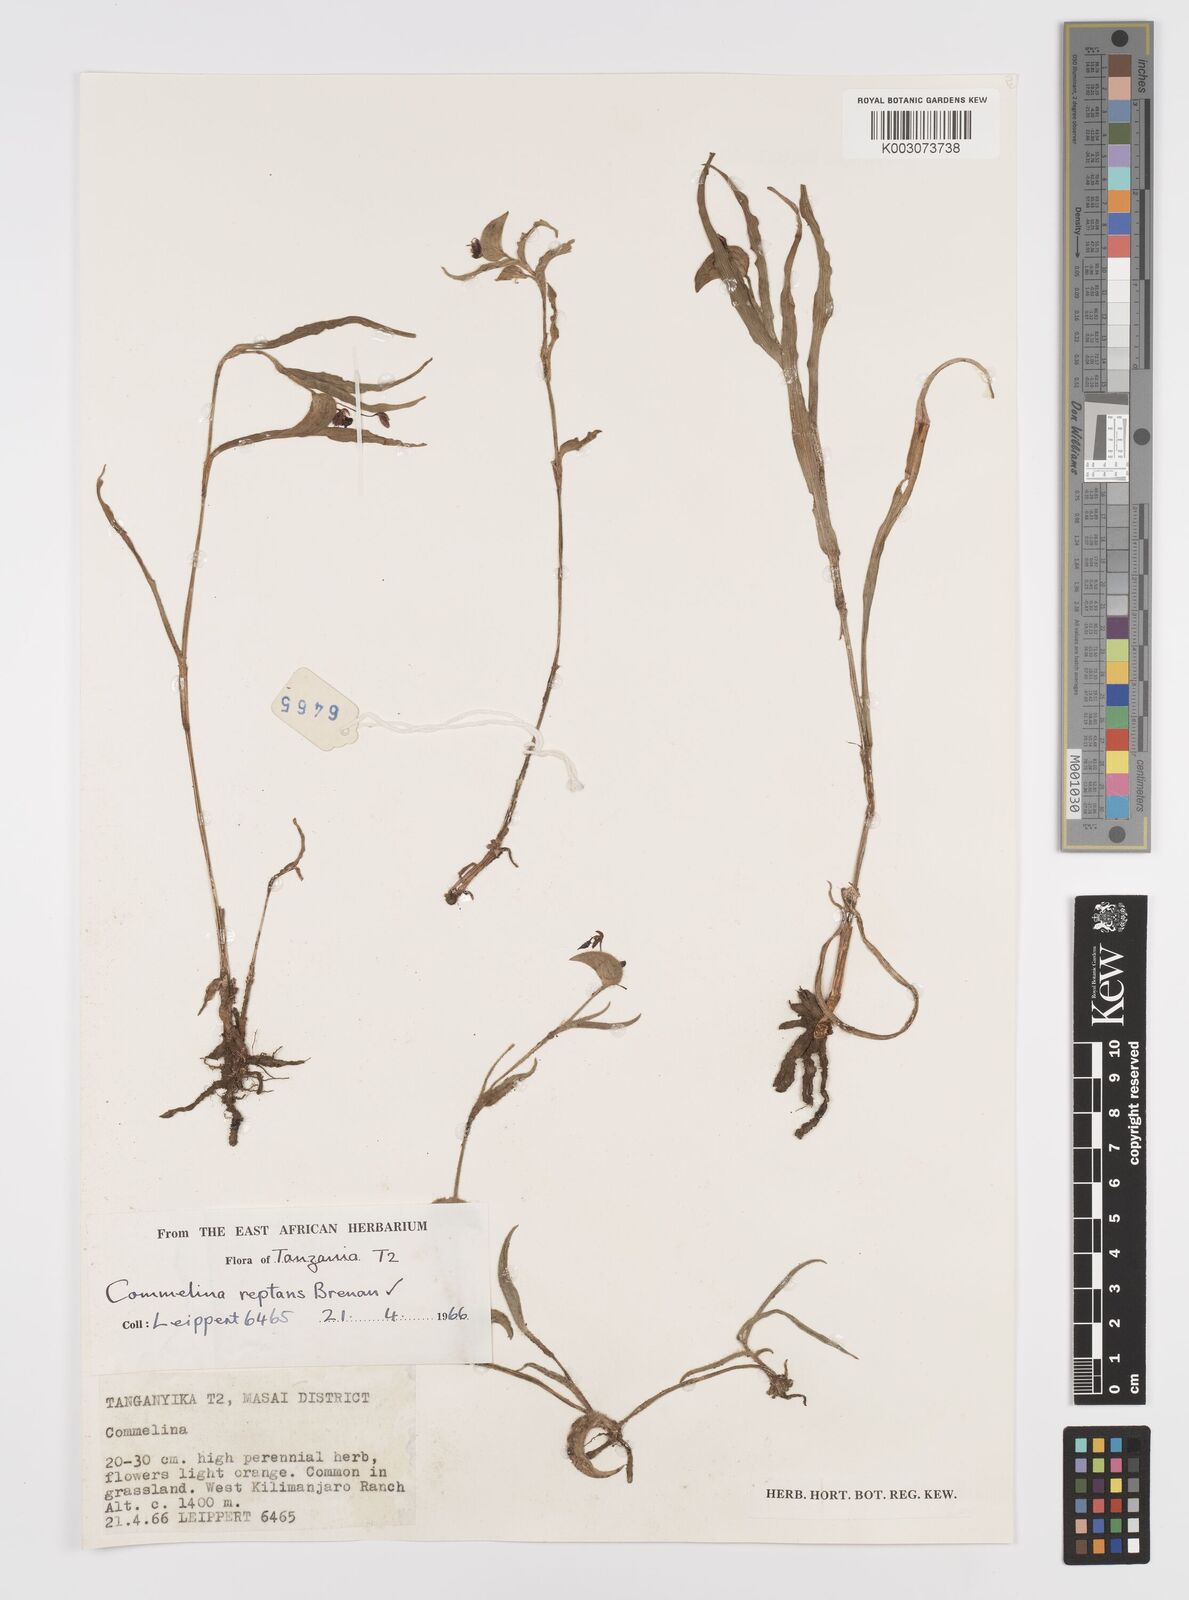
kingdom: Plantae
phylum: Tracheophyta
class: Liliopsida
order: Commelinales
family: Commelinaceae
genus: Commelina
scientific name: Commelina reptans
